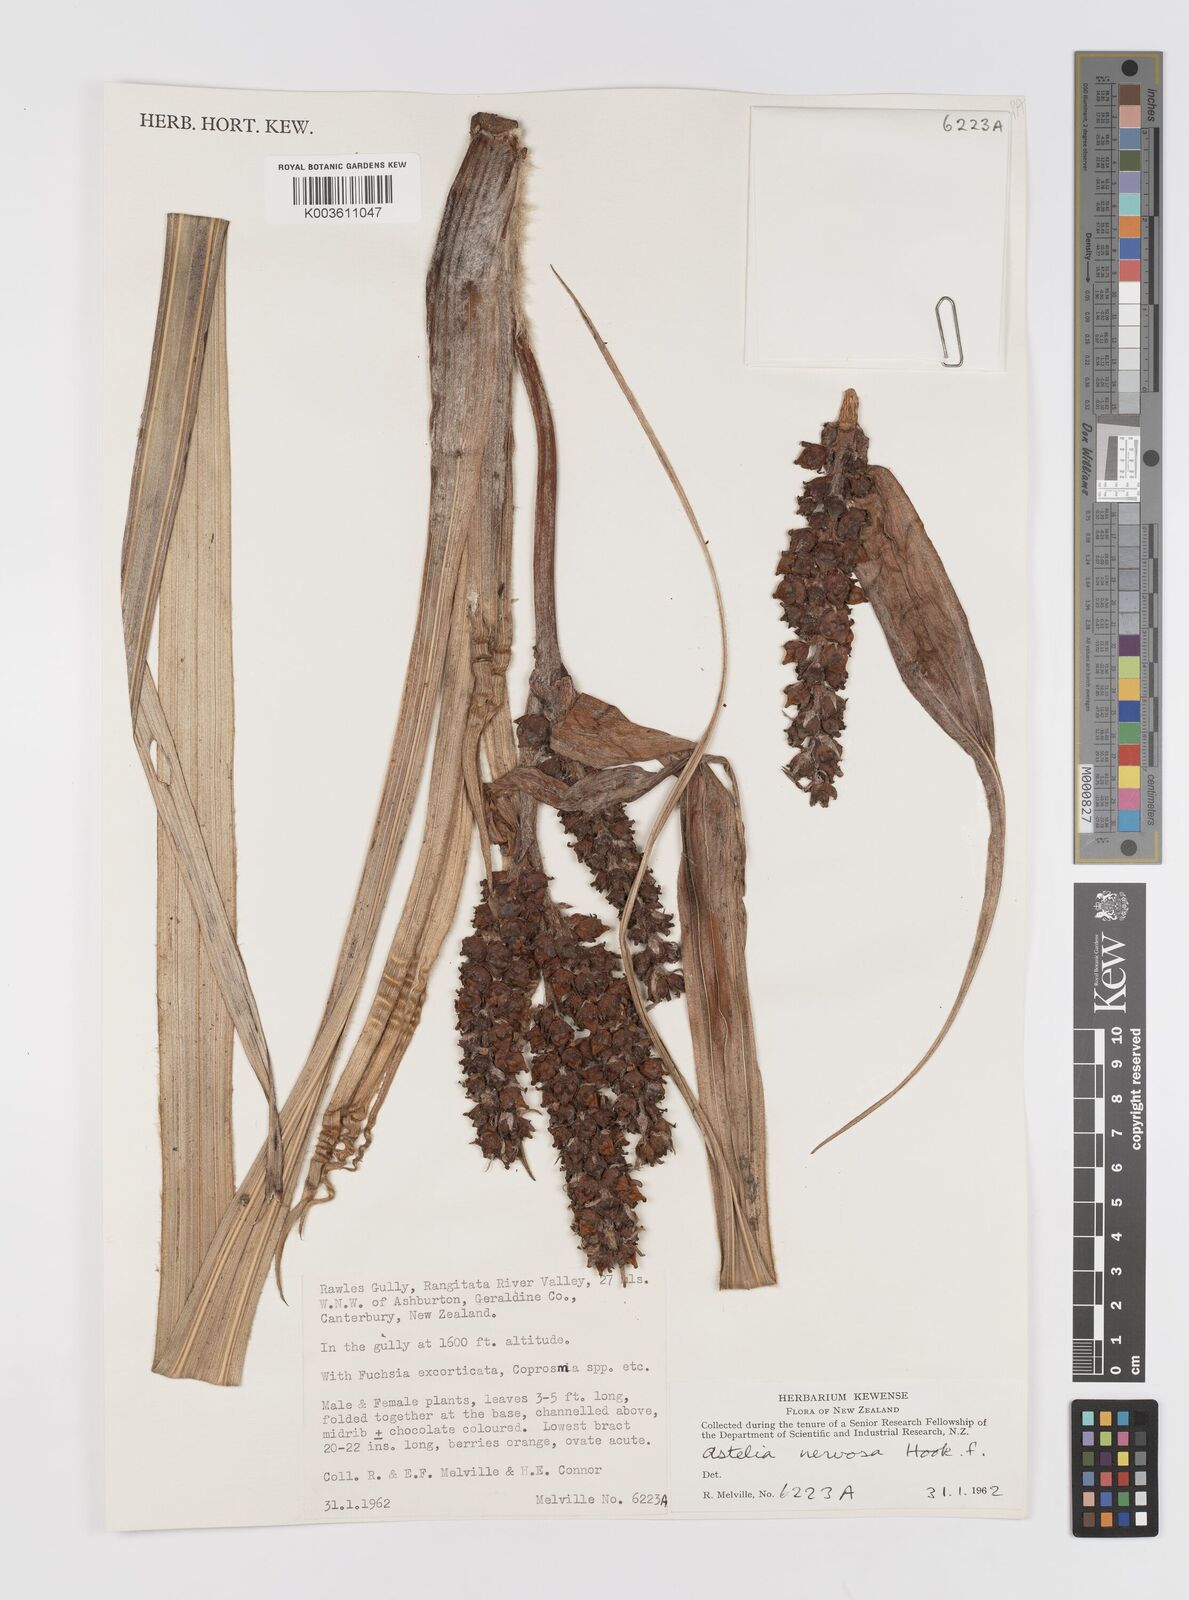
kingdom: Plantae
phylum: Tracheophyta
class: Liliopsida
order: Asparagales
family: Asteliaceae
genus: Astelia
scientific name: Astelia nervosa
